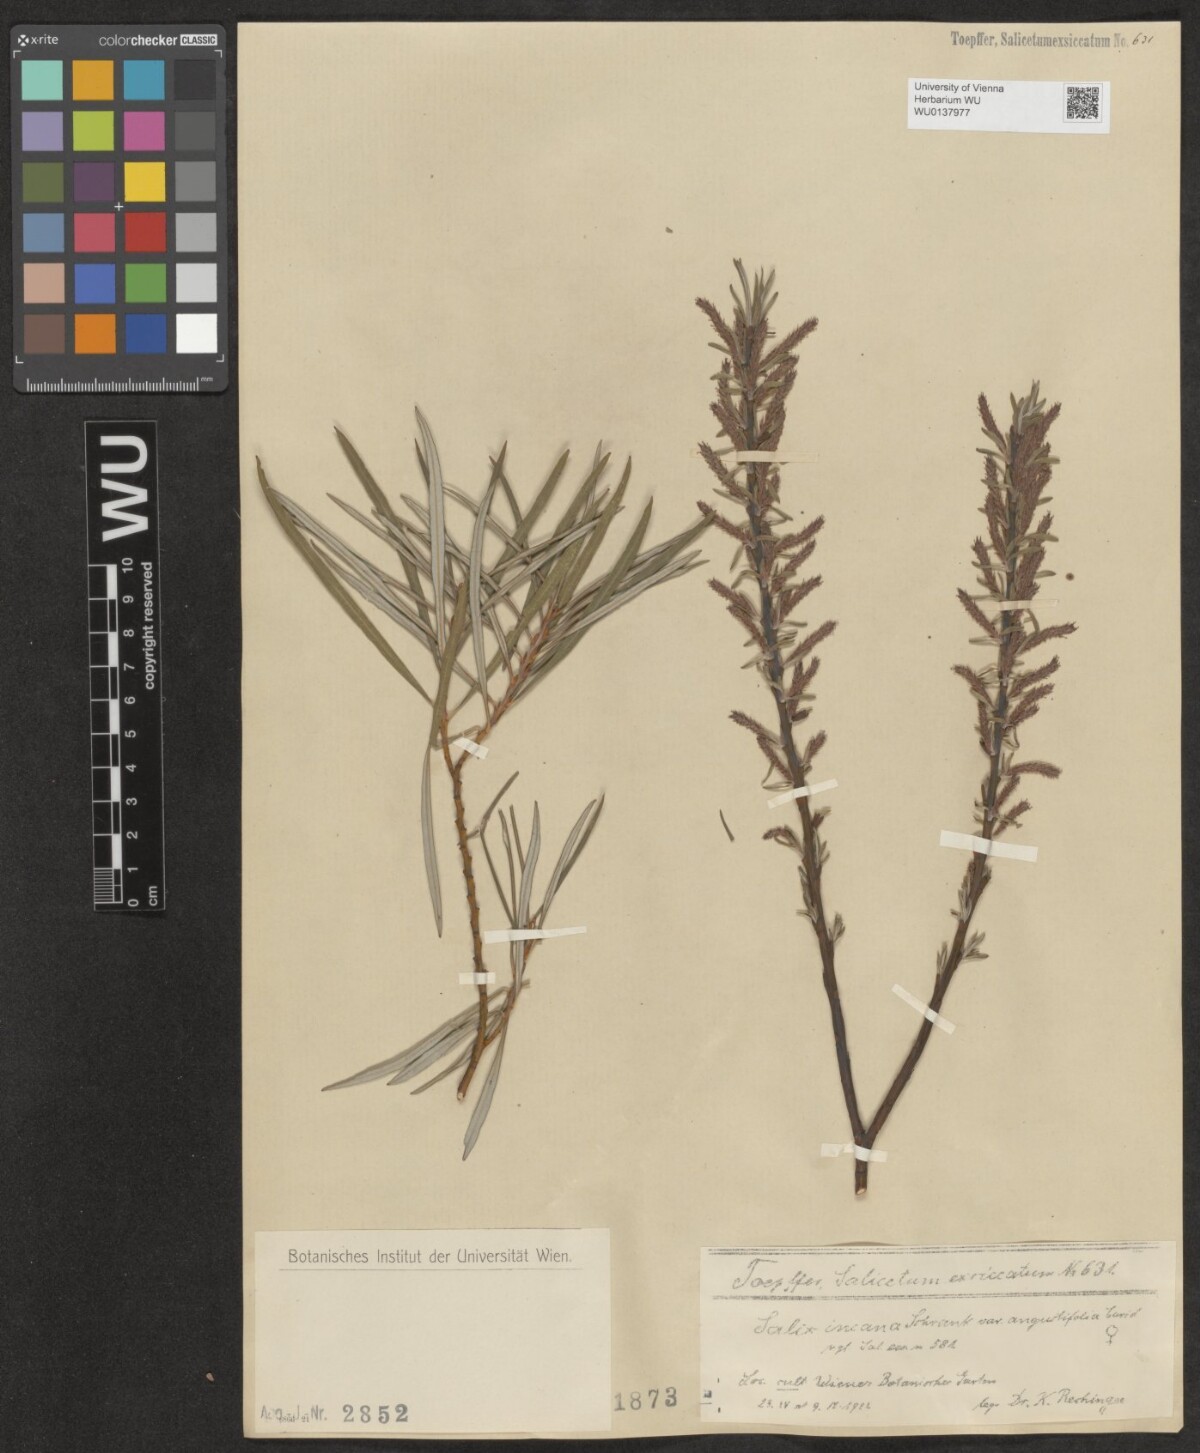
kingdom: Plantae
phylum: Tracheophyta
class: Magnoliopsida
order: Malpighiales
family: Salicaceae
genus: Salix
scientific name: Salix eleagnos
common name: Elaeagnus willow
